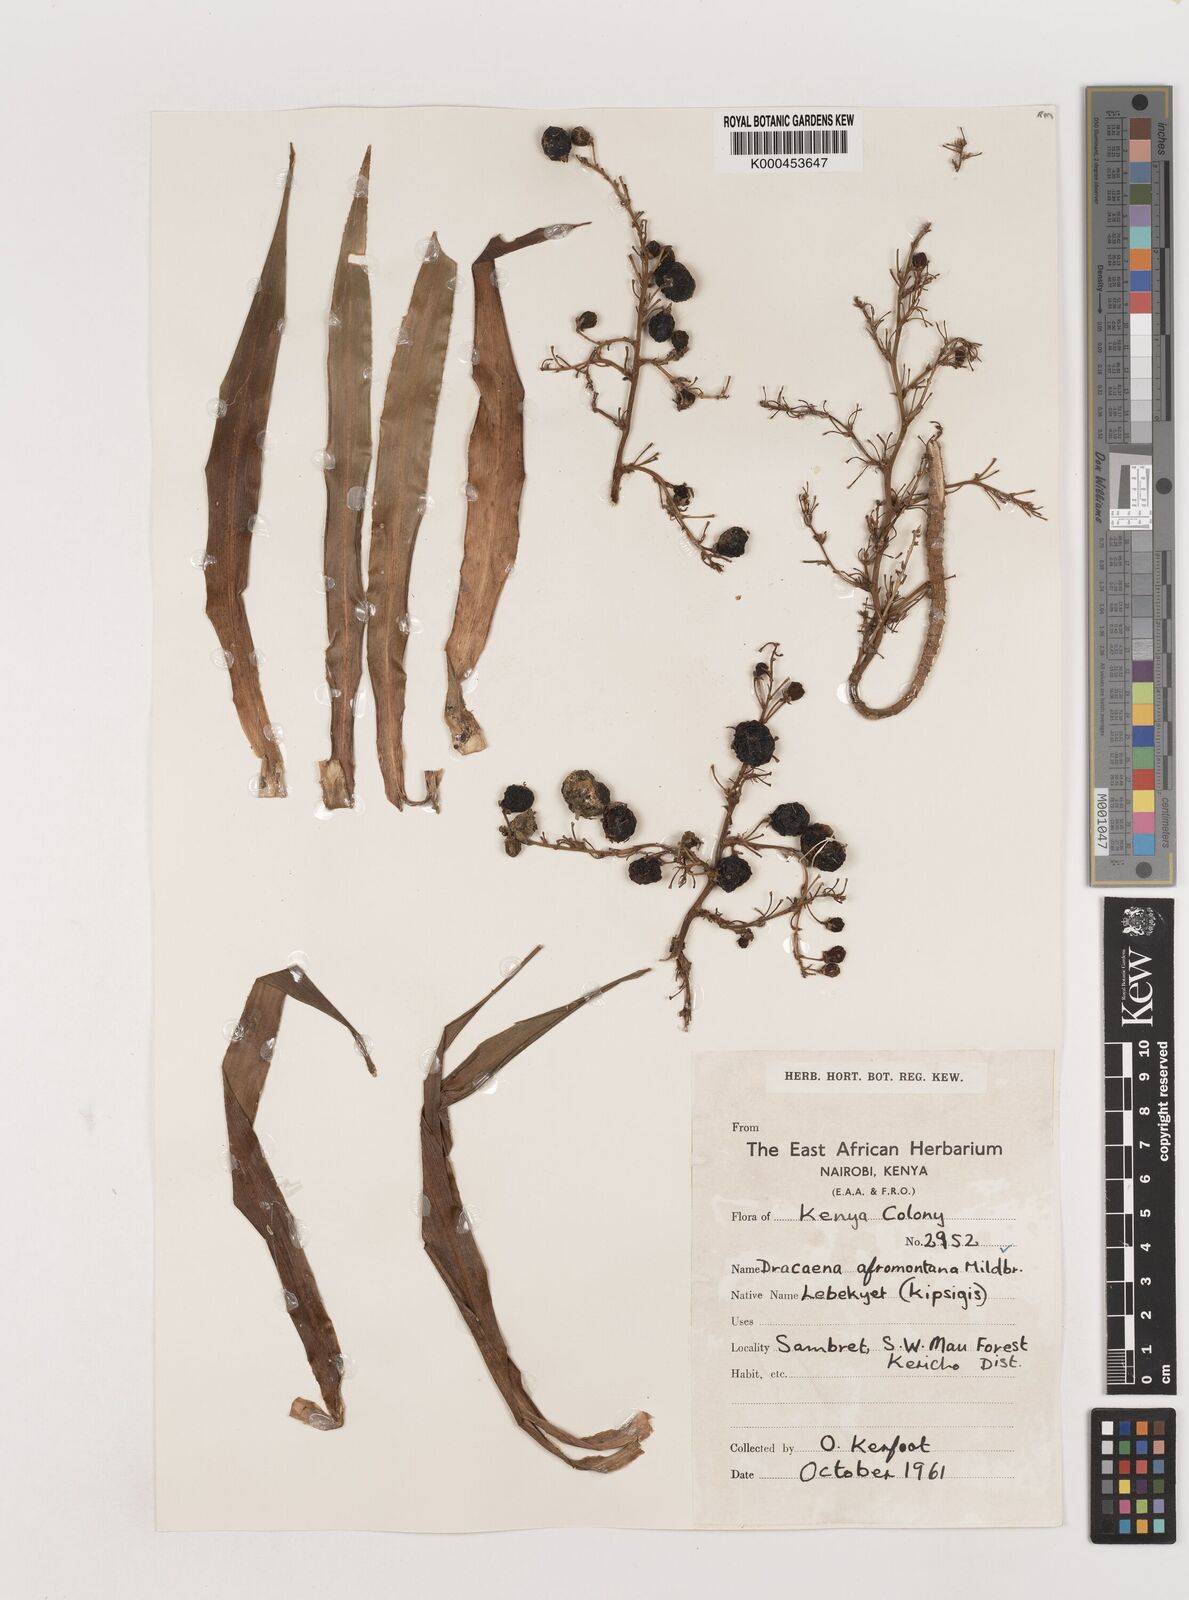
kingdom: Plantae
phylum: Tracheophyta
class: Liliopsida
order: Asparagales
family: Asparagaceae
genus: Dracaena
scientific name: Dracaena afromontana
